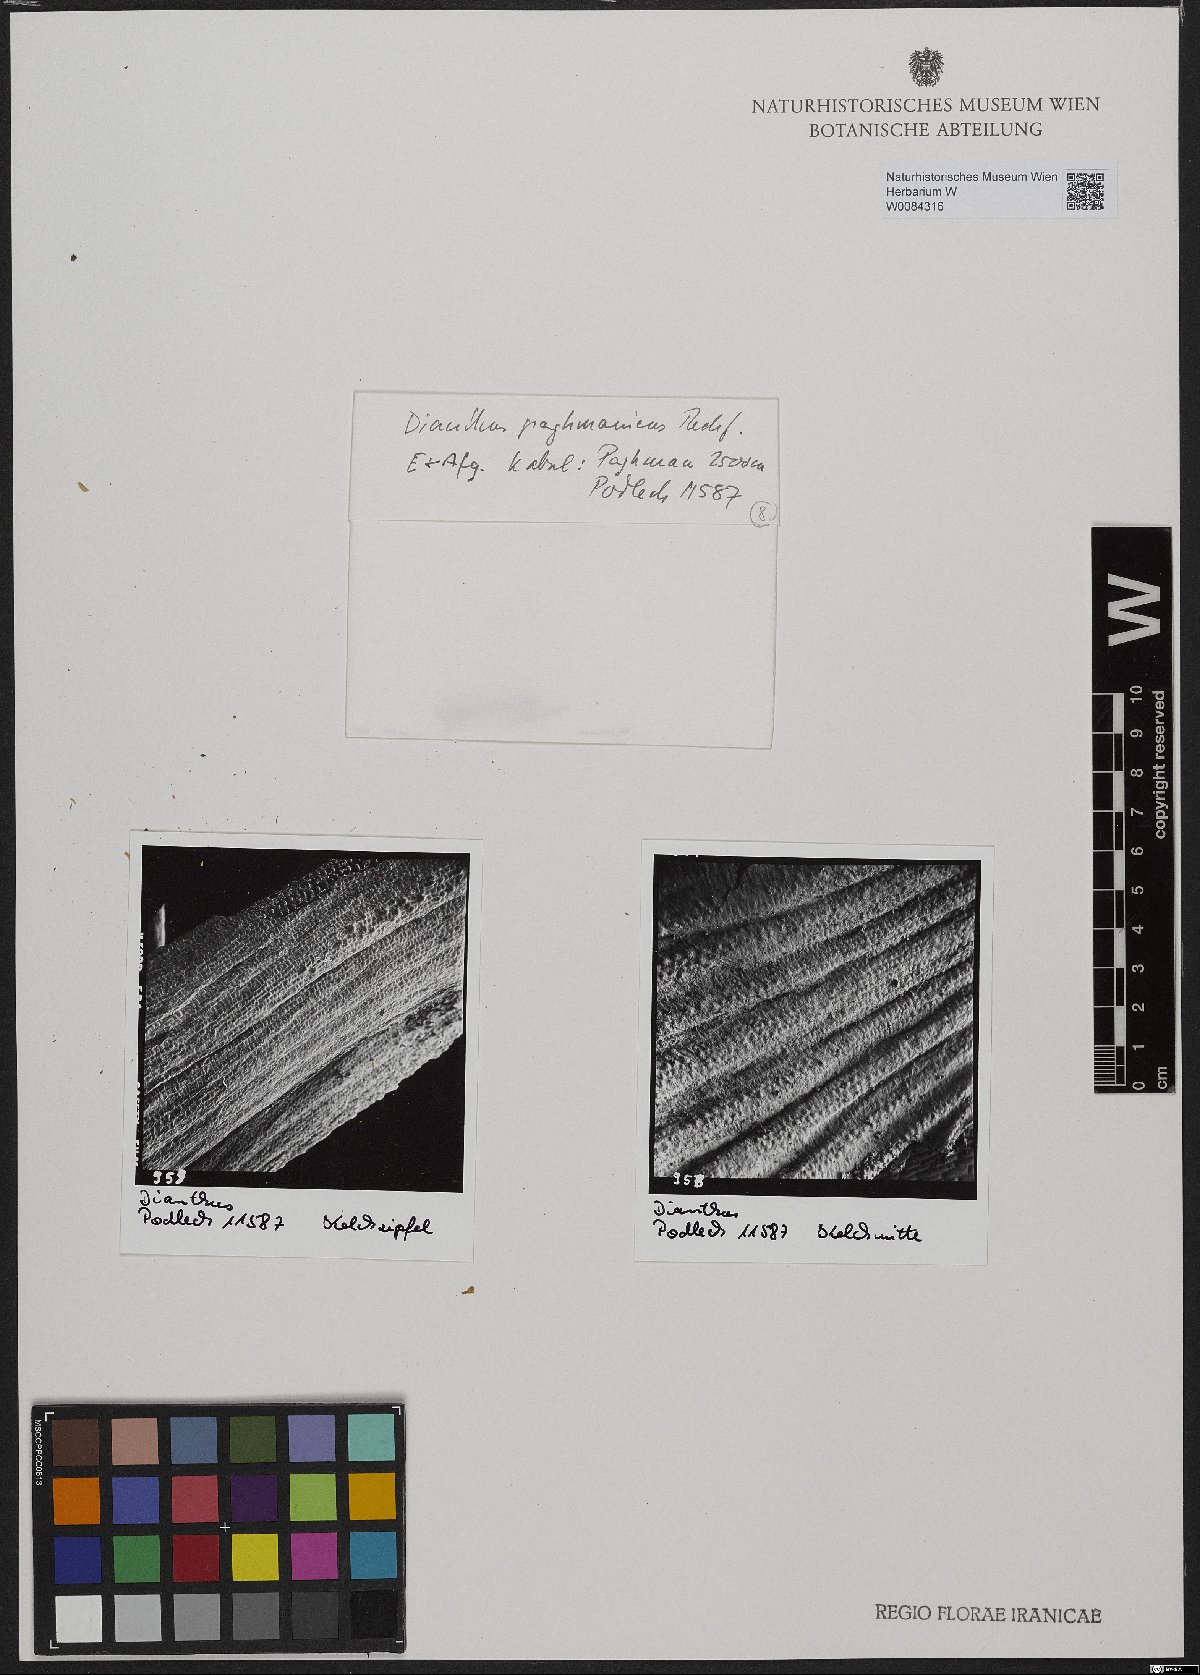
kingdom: Plantae
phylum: Tracheophyta
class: Magnoliopsida
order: Caryophyllales
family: Caryophyllaceae
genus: Dianthus
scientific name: Dianthus paghmanicus
